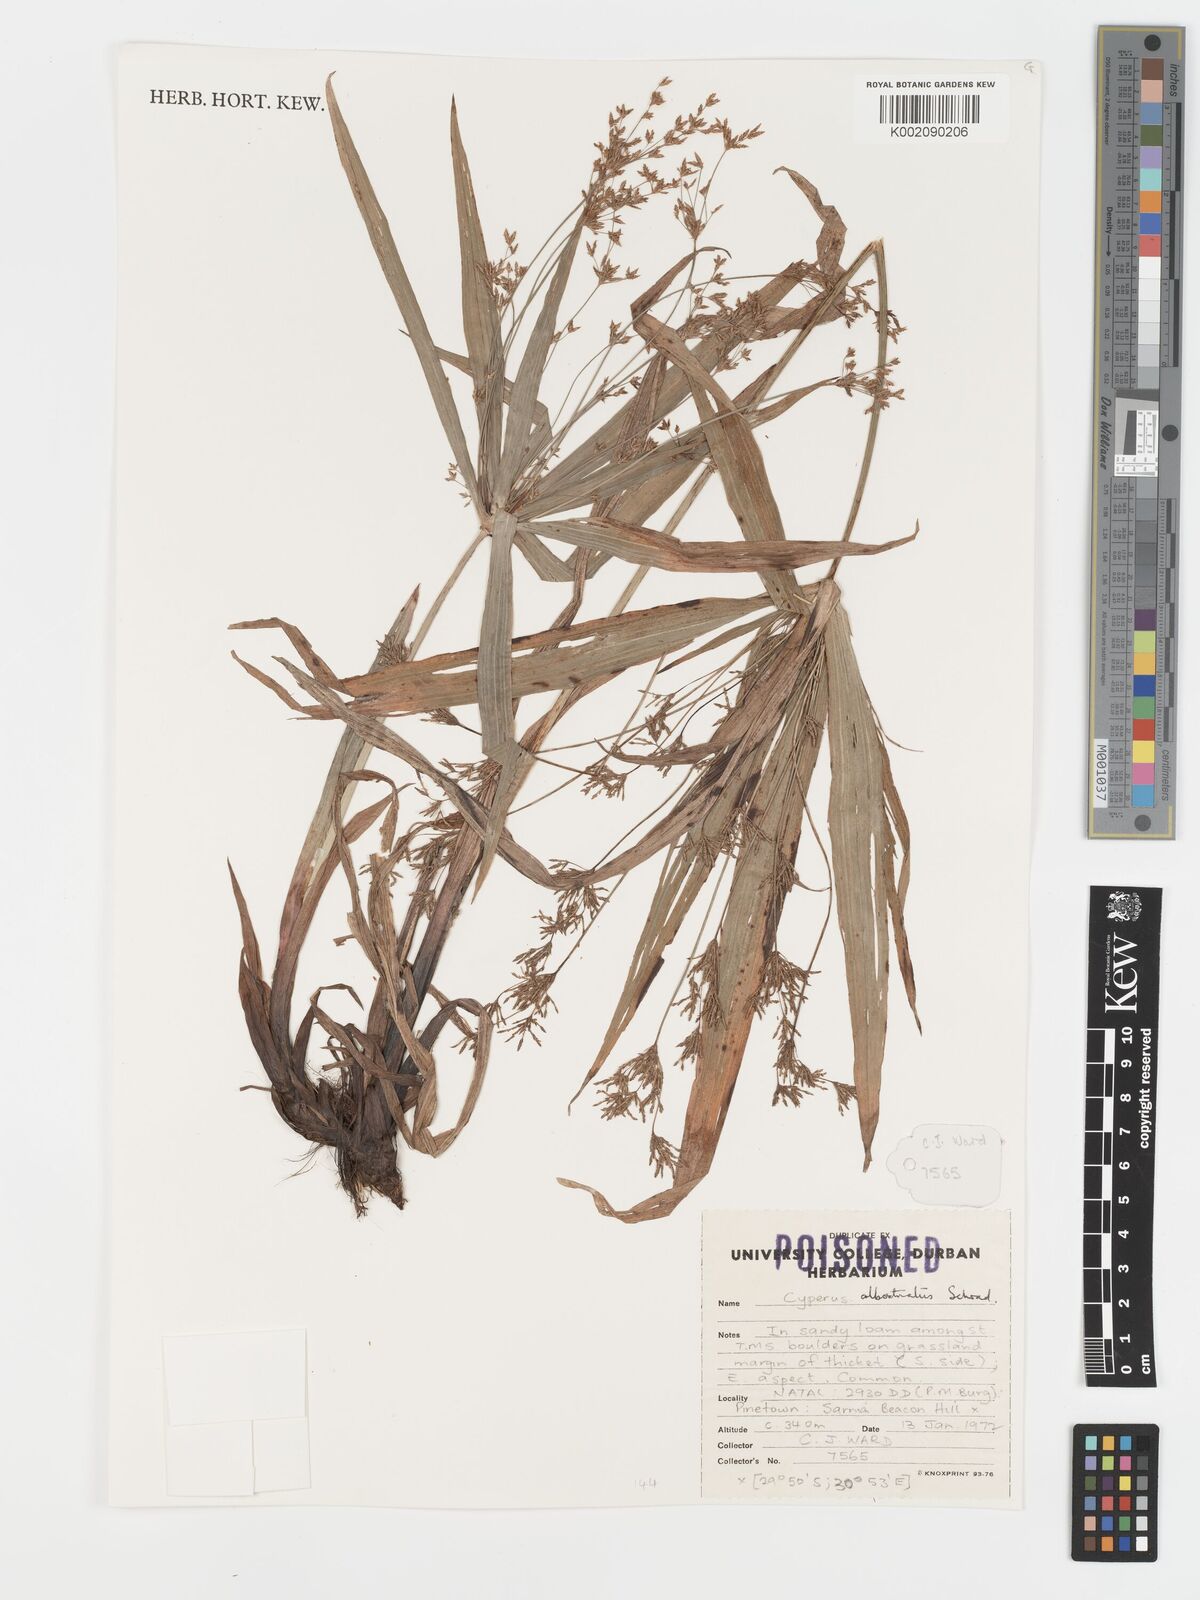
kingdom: Plantae
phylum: Tracheophyta
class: Liliopsida
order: Poales
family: Cyperaceae
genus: Cyperus
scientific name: Cyperus albostriatus
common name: Dwarf umbrella-grass
